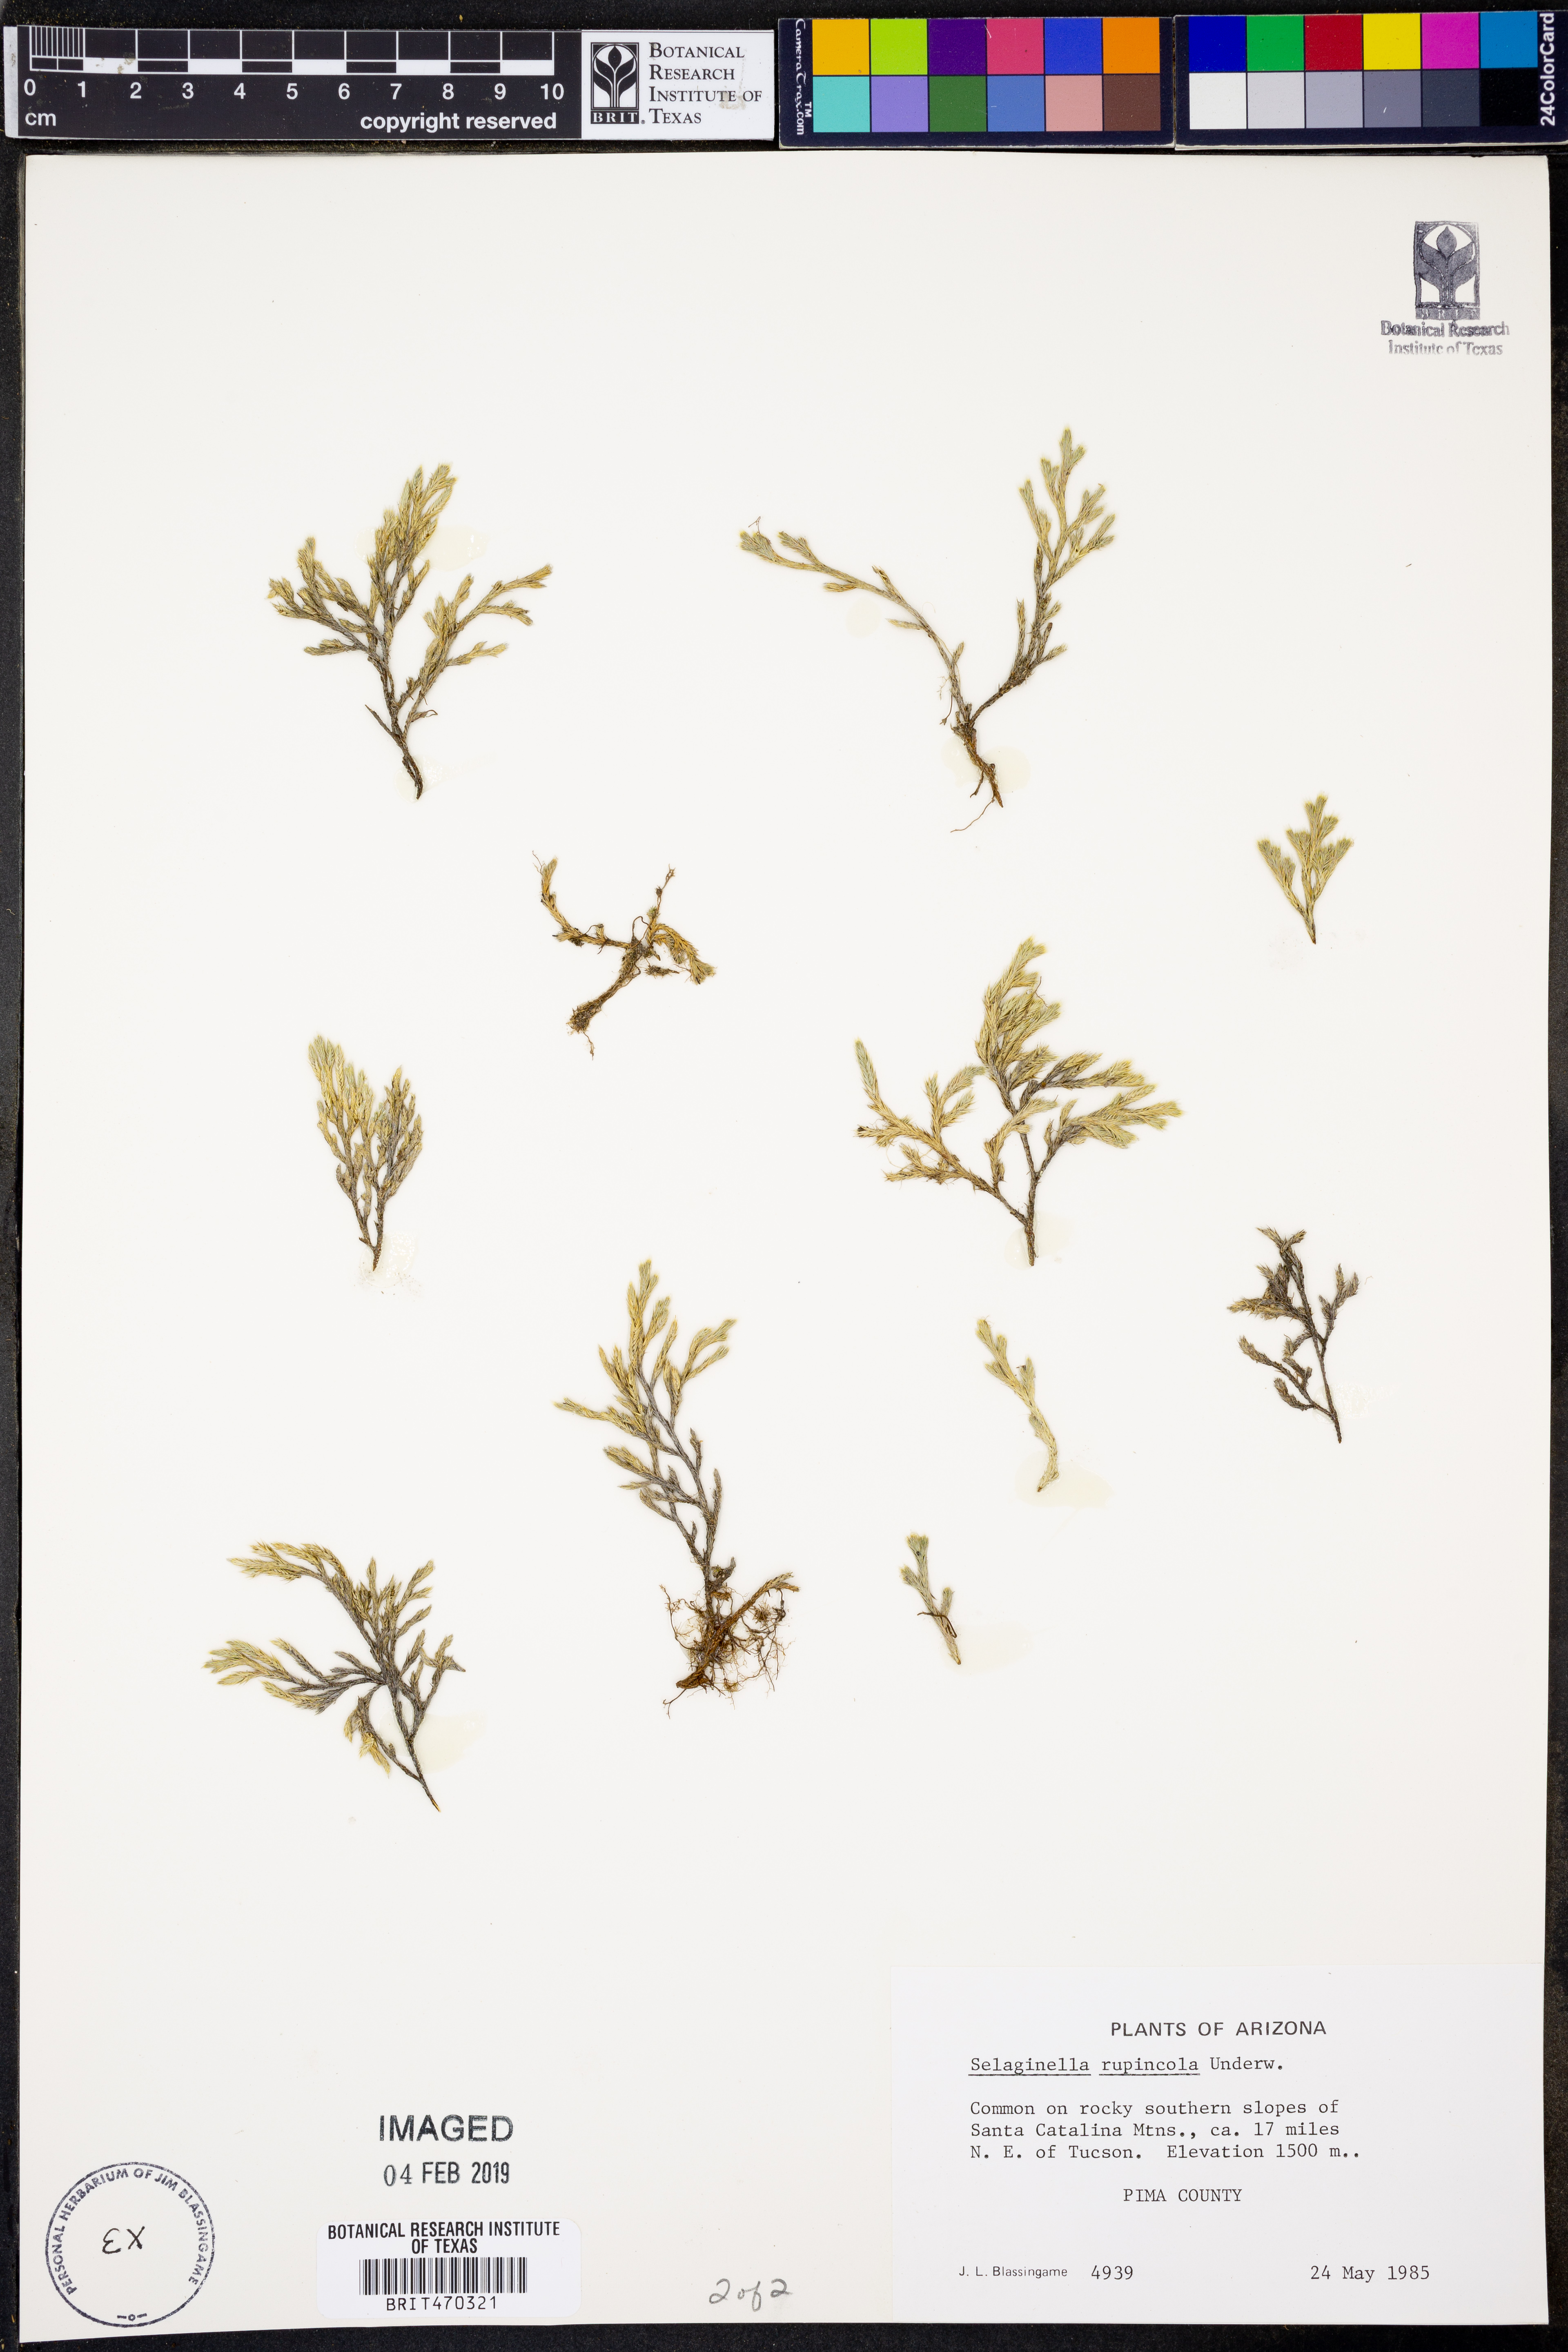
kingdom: Plantae
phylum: Tracheophyta
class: Lycopodiopsida
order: Selaginellales
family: Selaginellaceae
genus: Selaginella
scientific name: Selaginella rupincola
